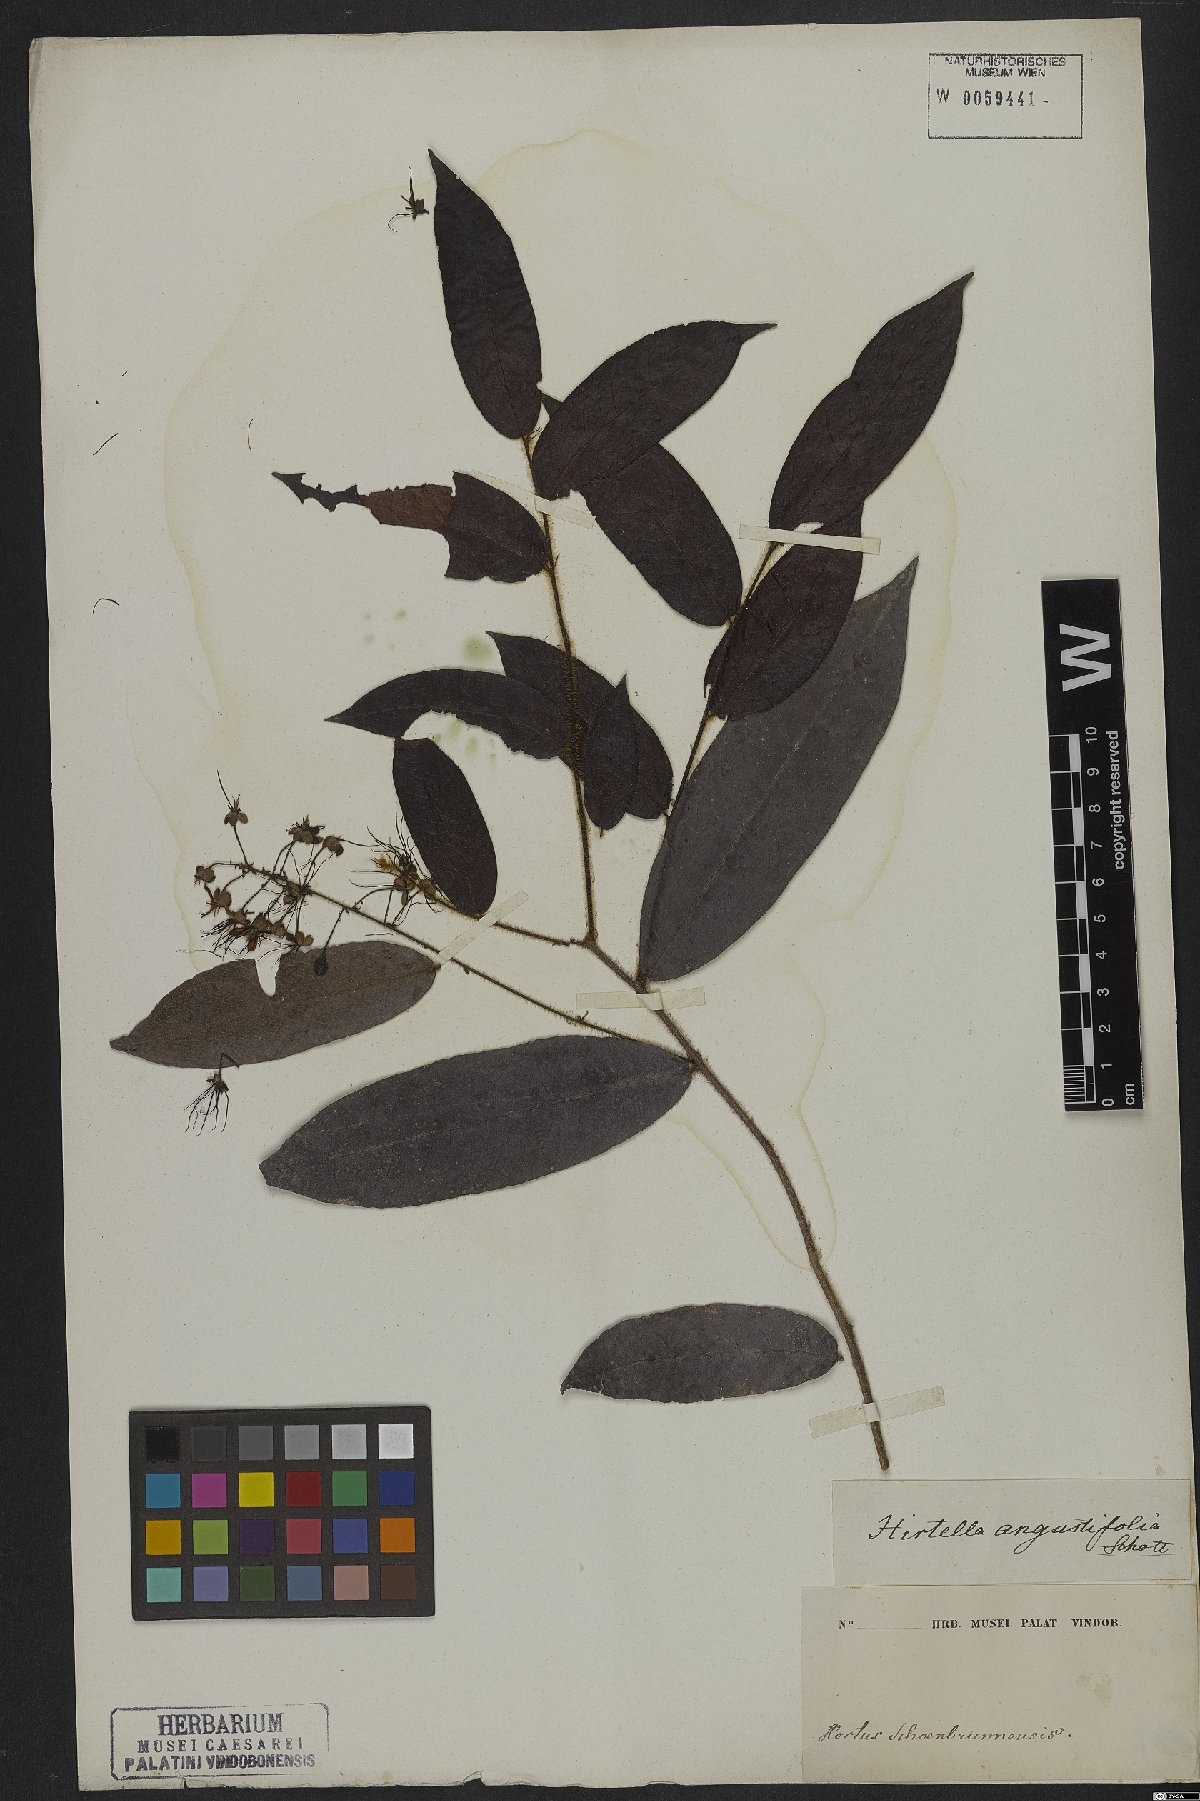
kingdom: Plantae
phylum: Tracheophyta
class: Magnoliopsida
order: Malpighiales
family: Chrysobalanaceae
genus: Hirtella
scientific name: Hirtella angustifolia
